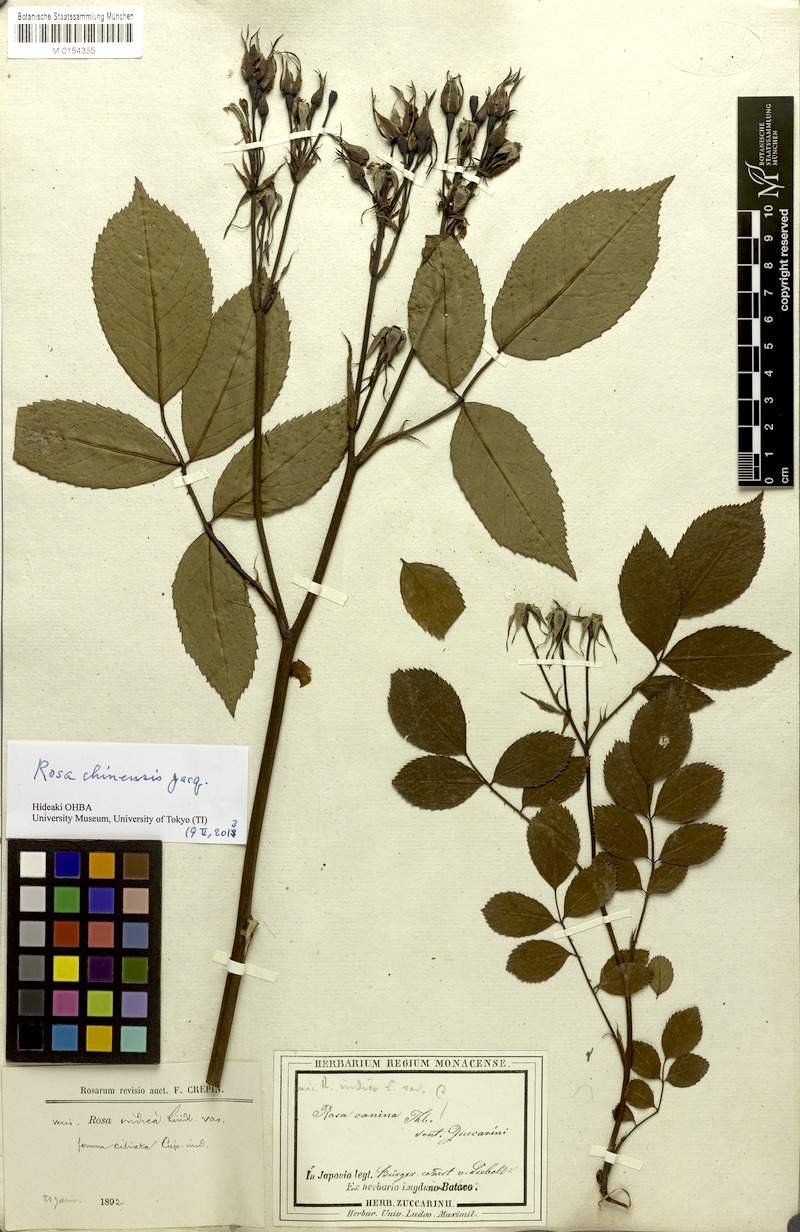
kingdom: Plantae
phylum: Tracheophyta
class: Magnoliopsida
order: Rosales
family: Rosaceae
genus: Rosa
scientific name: Rosa chinensis
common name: China rose
